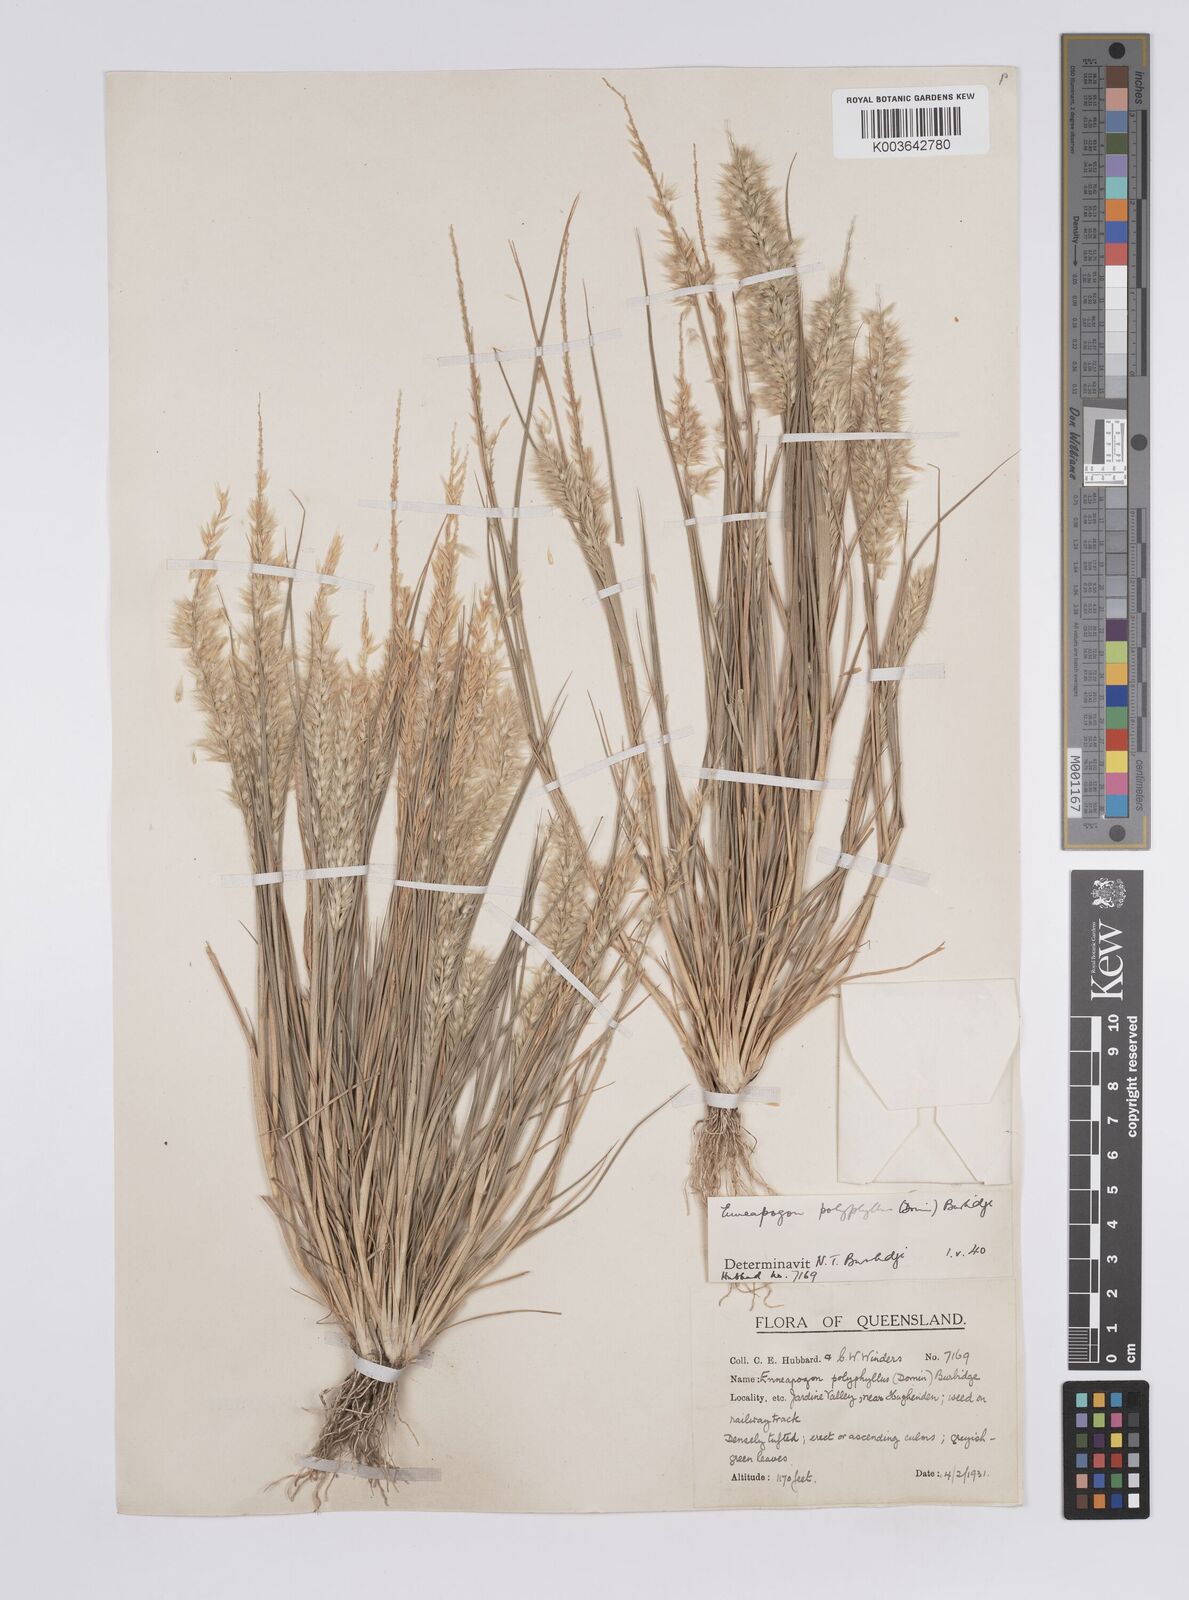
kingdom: Plantae
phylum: Tracheophyta
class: Liliopsida
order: Poales
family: Poaceae
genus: Enneapogon
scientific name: Enneapogon polyphyllus
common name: Leafy nineawn
